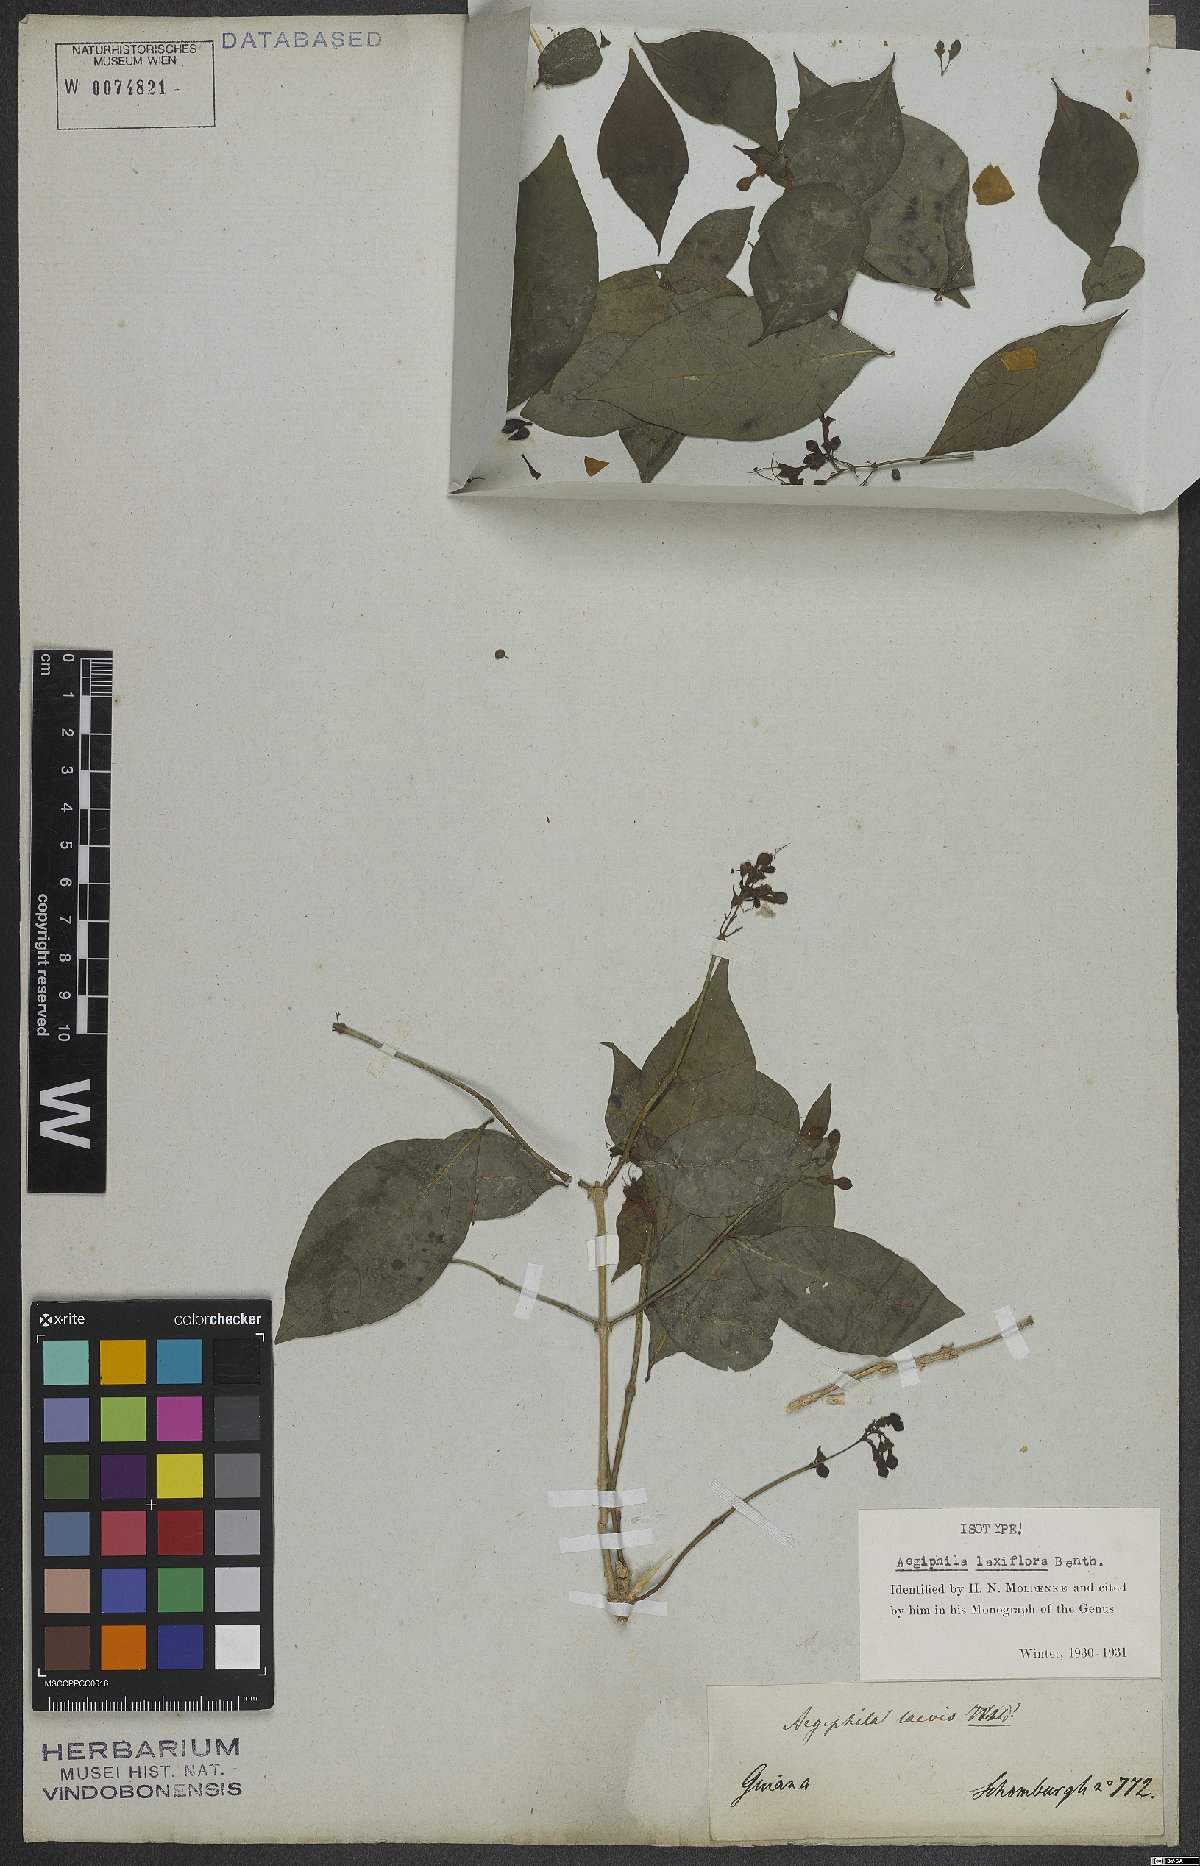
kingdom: Plantae
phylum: Tracheophyta
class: Magnoliopsida
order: Lamiales
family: Lamiaceae
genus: Aegiphila
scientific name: Aegiphila laxiflora
